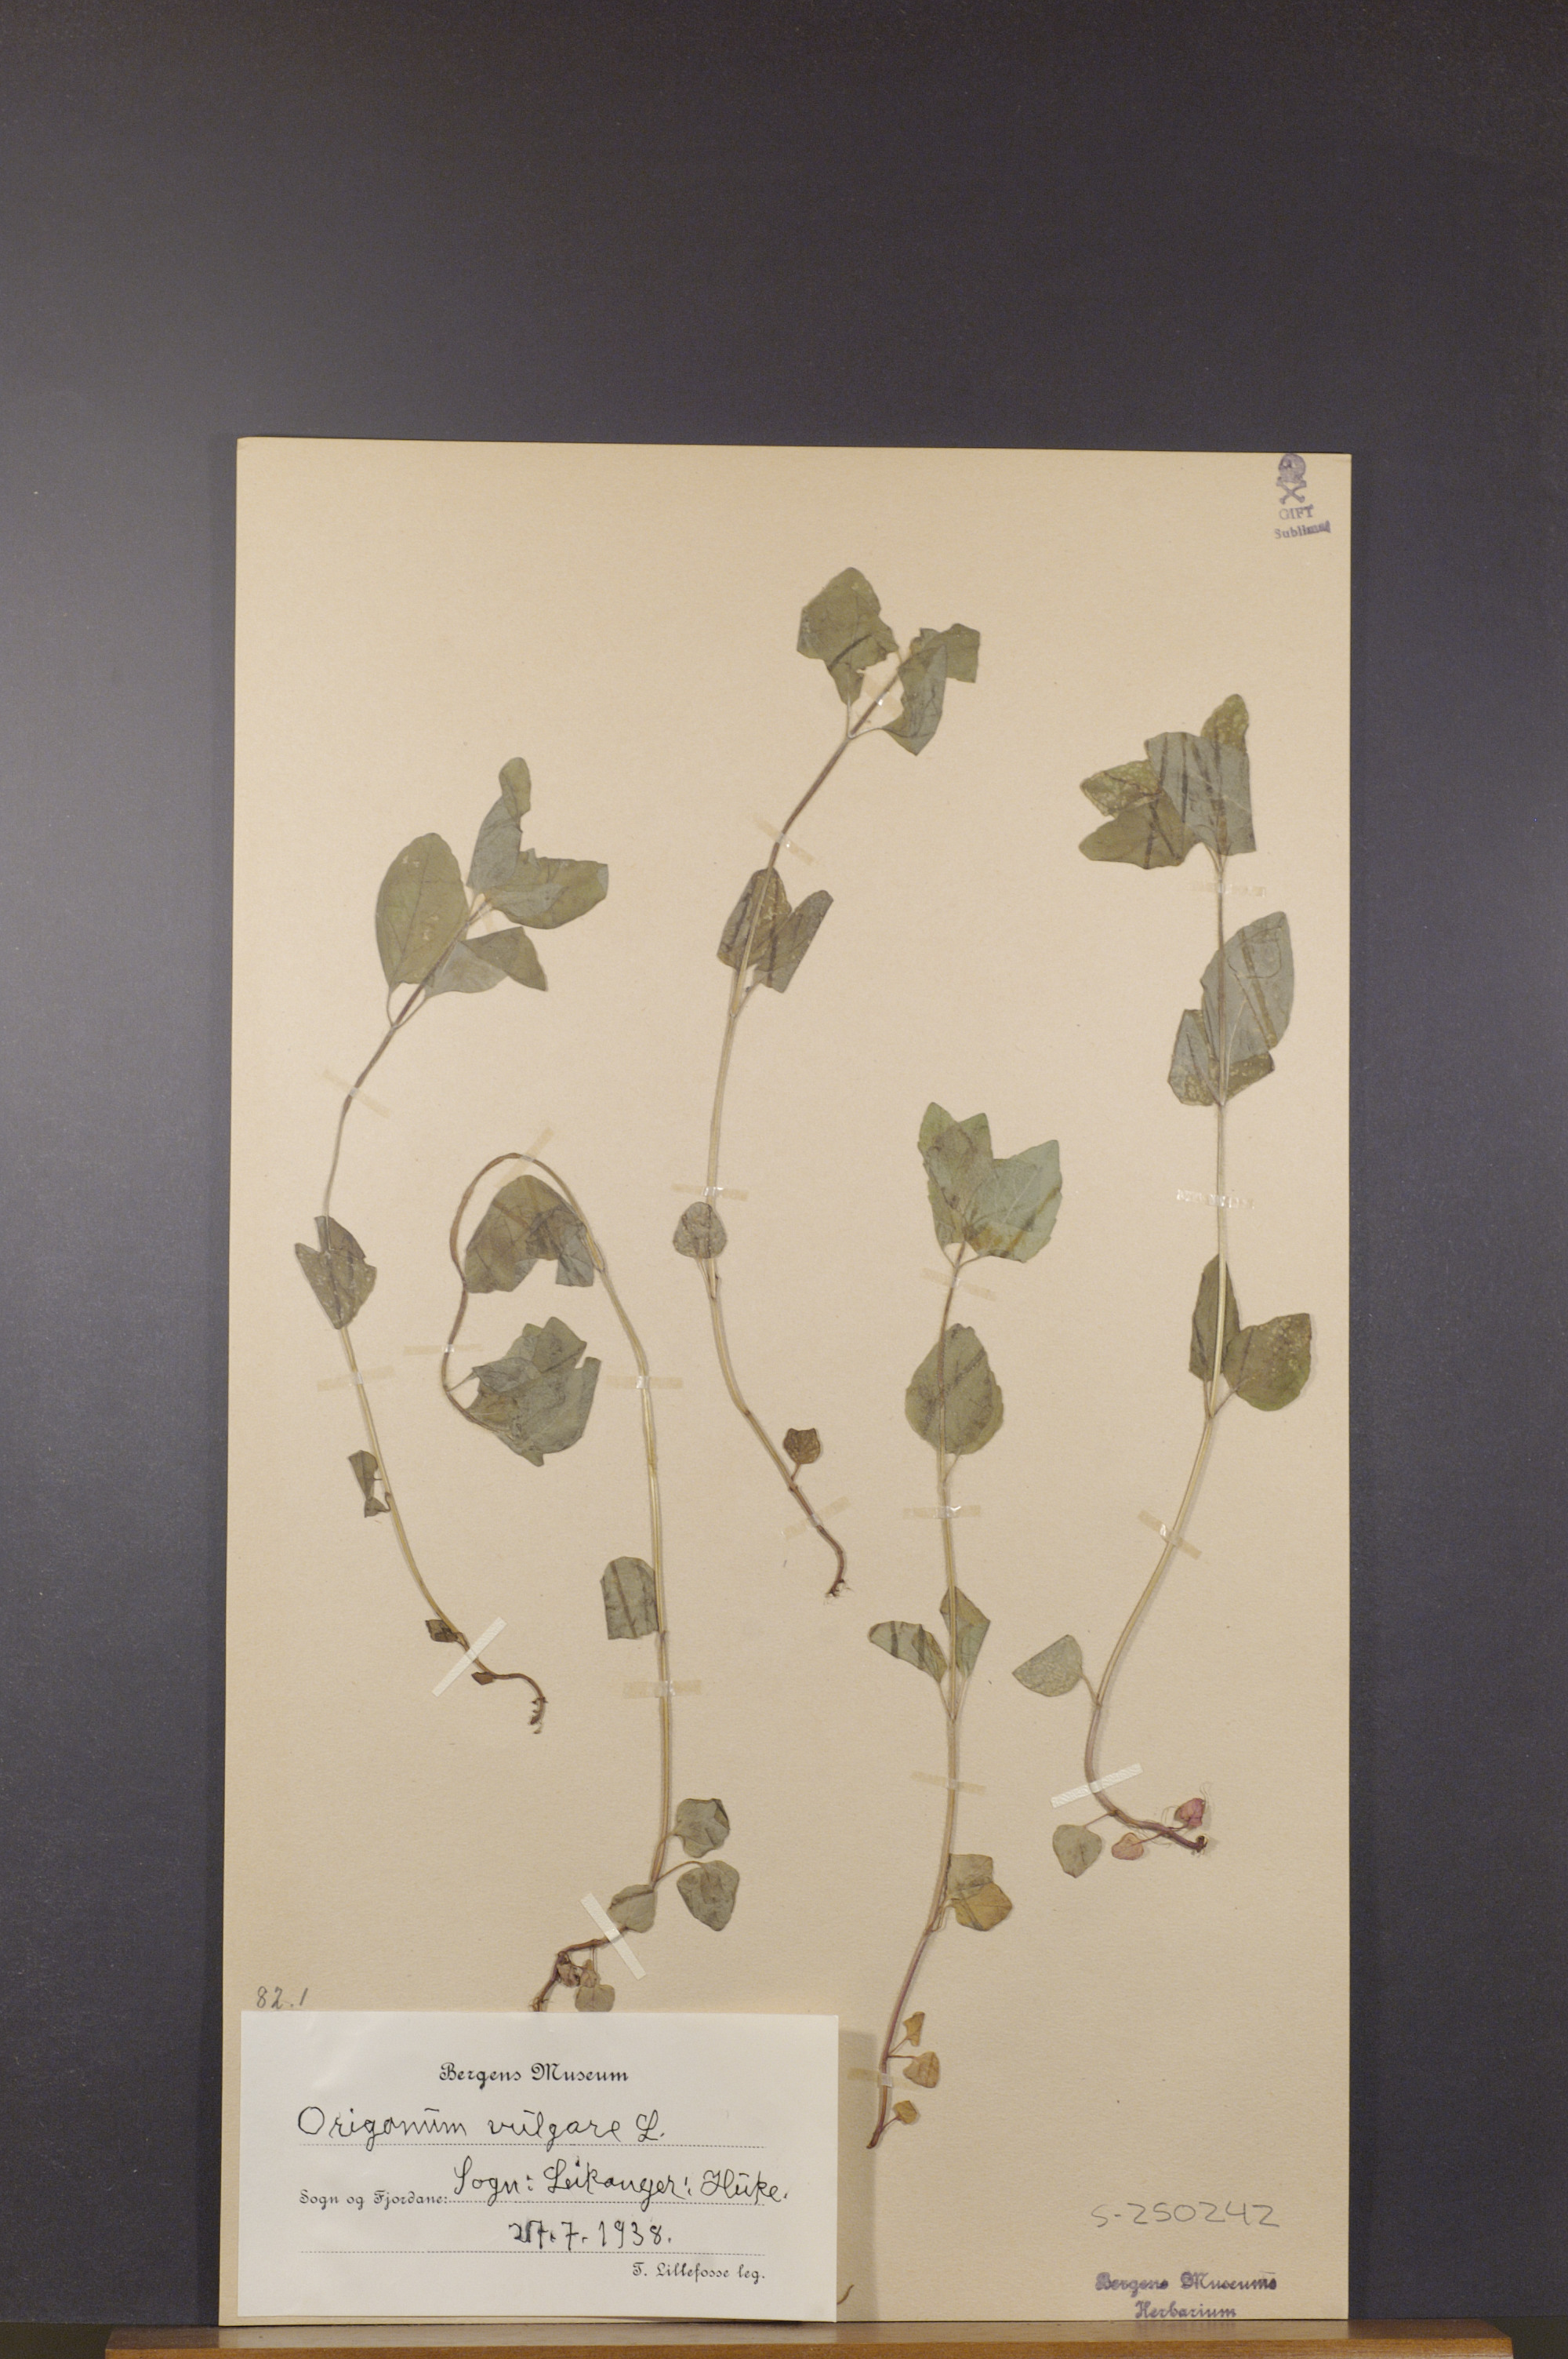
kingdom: Plantae
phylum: Tracheophyta
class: Magnoliopsida
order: Lamiales
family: Lamiaceae
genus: Origanum
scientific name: Origanum vulgare
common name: Wild marjoram
